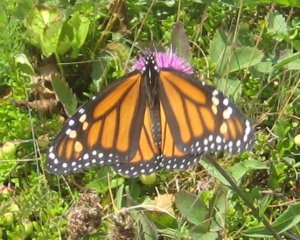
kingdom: Animalia
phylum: Arthropoda
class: Insecta
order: Lepidoptera
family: Nymphalidae
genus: Danaus
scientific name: Danaus plexippus
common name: Monarch
